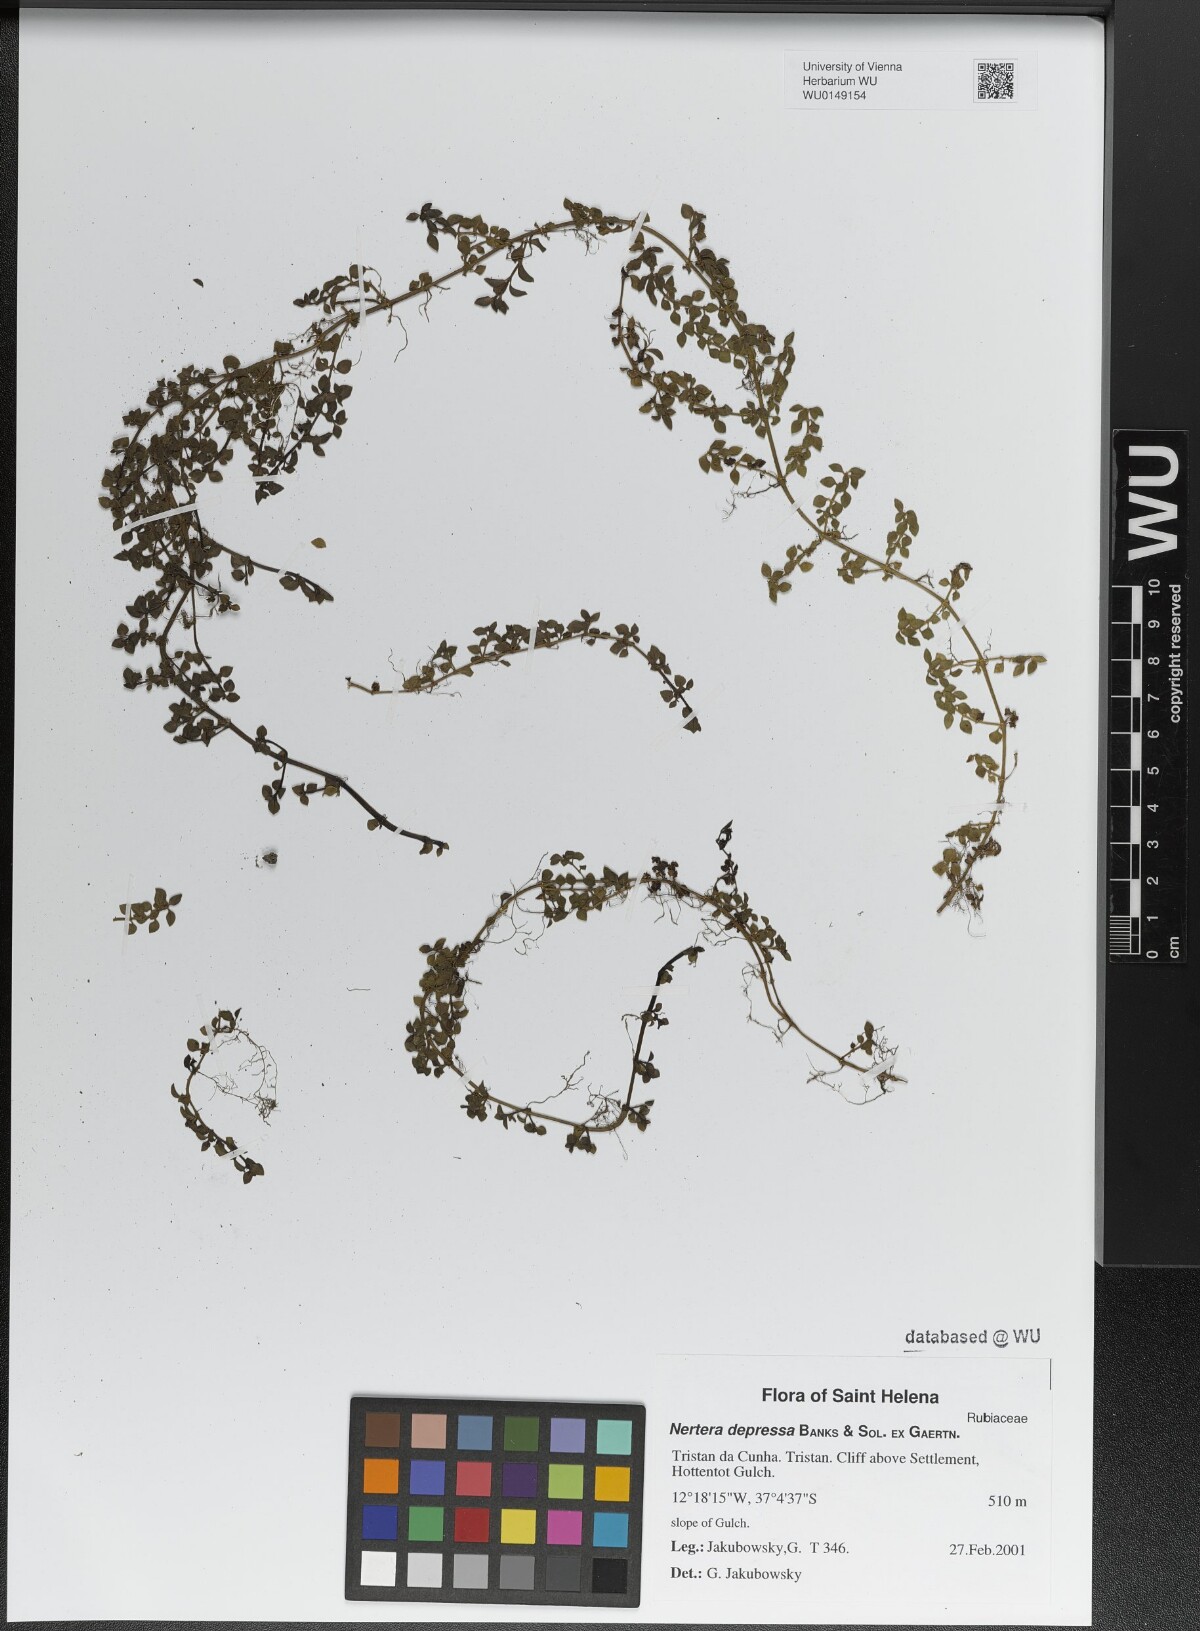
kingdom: Plantae
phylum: Tracheophyta
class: Magnoliopsida
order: Gentianales
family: Rubiaceae
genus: Nertera
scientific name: Nertera granadensis
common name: Beadplant
